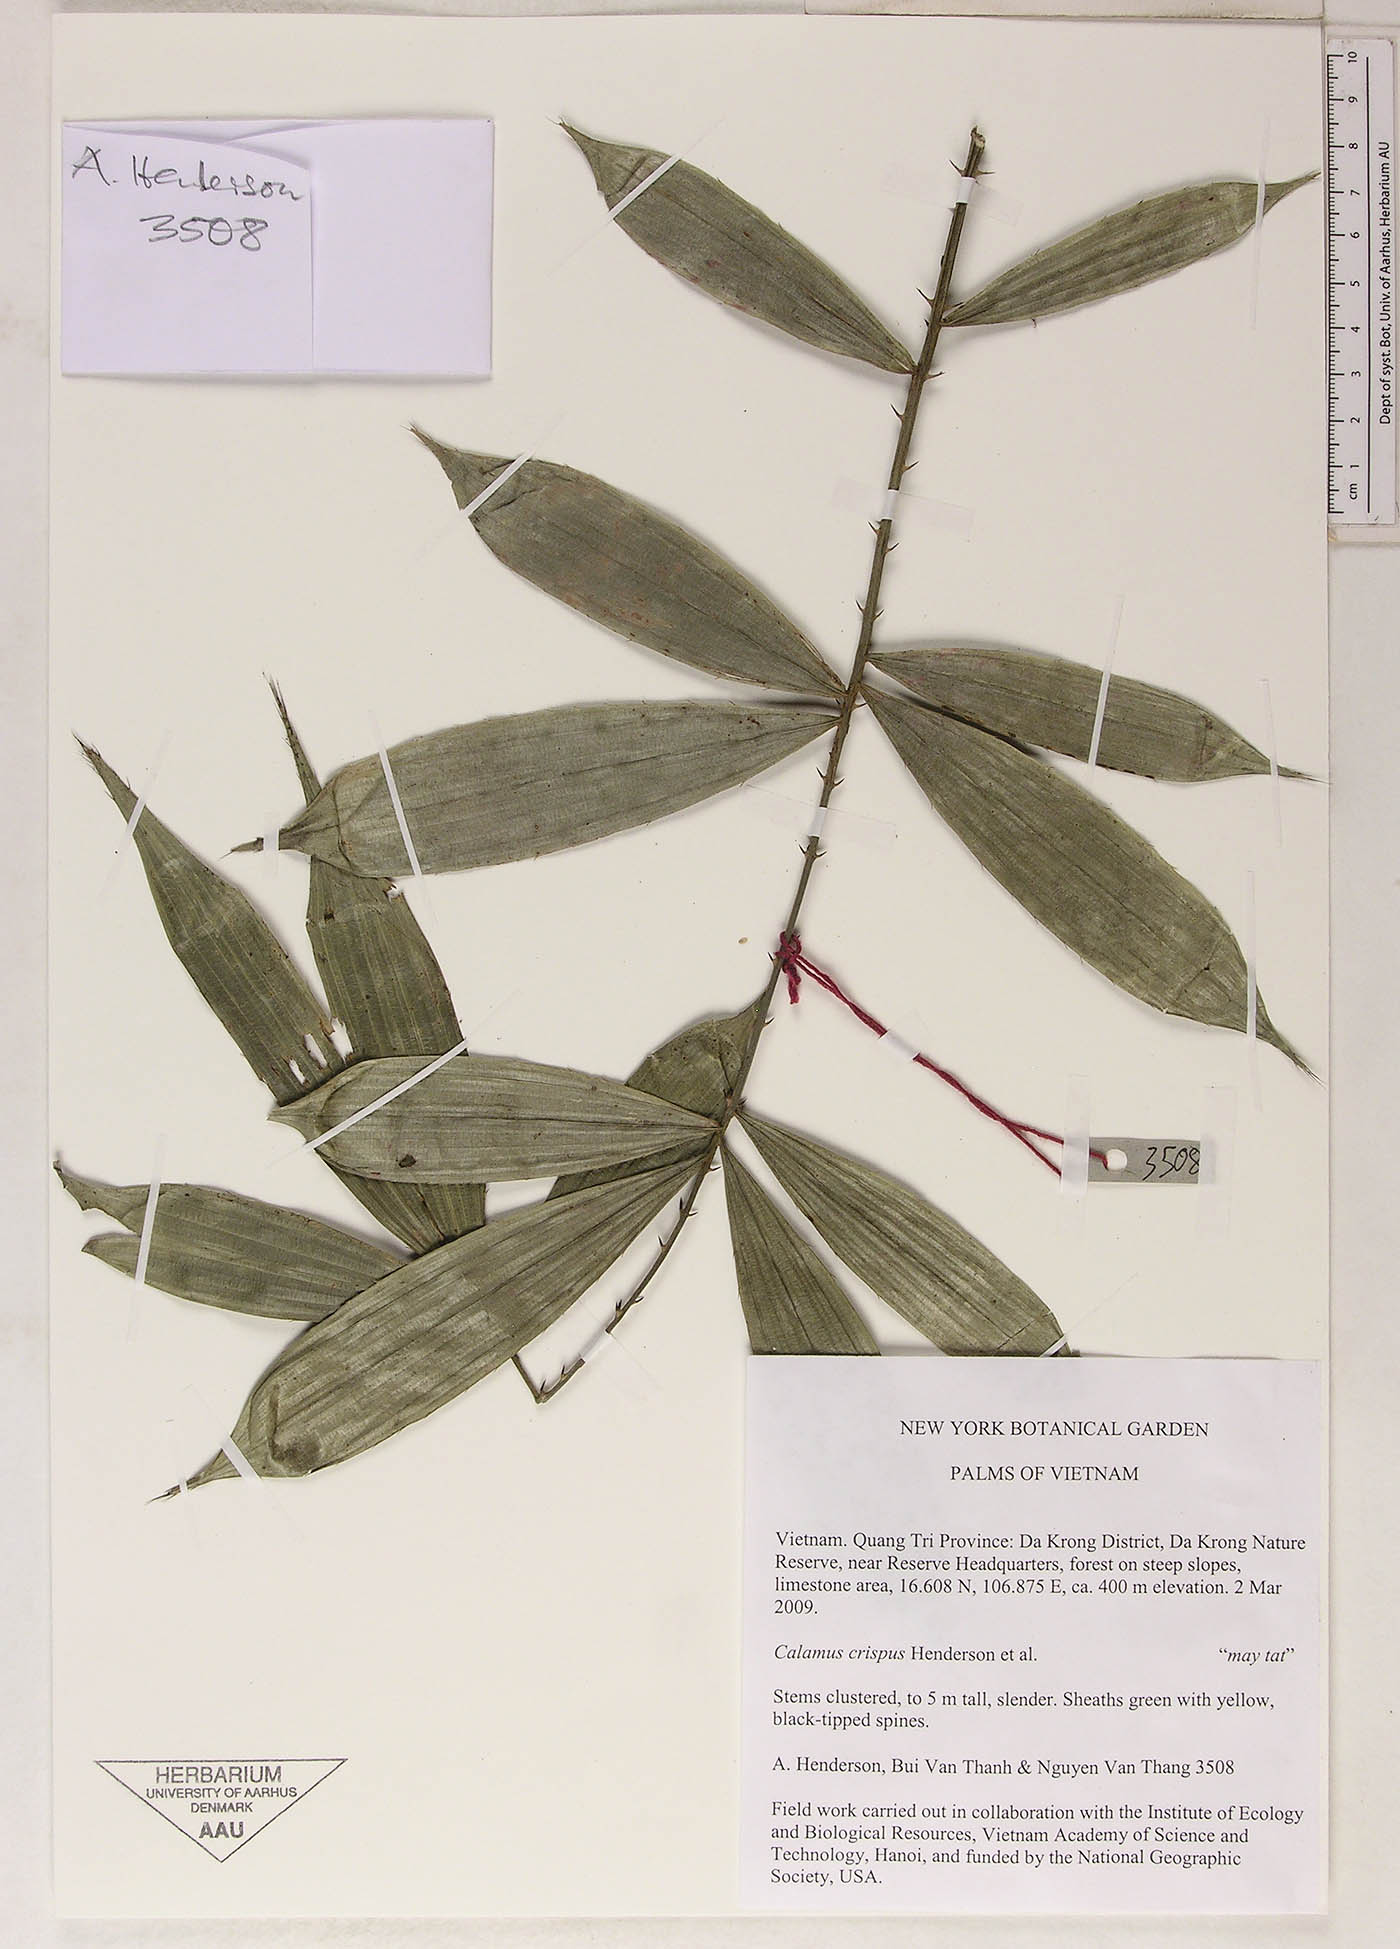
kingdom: Plantae
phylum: Tracheophyta
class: Liliopsida
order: Arecales
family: Arecaceae
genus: Calamus
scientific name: Calamus tetradactylus
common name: White rattan
